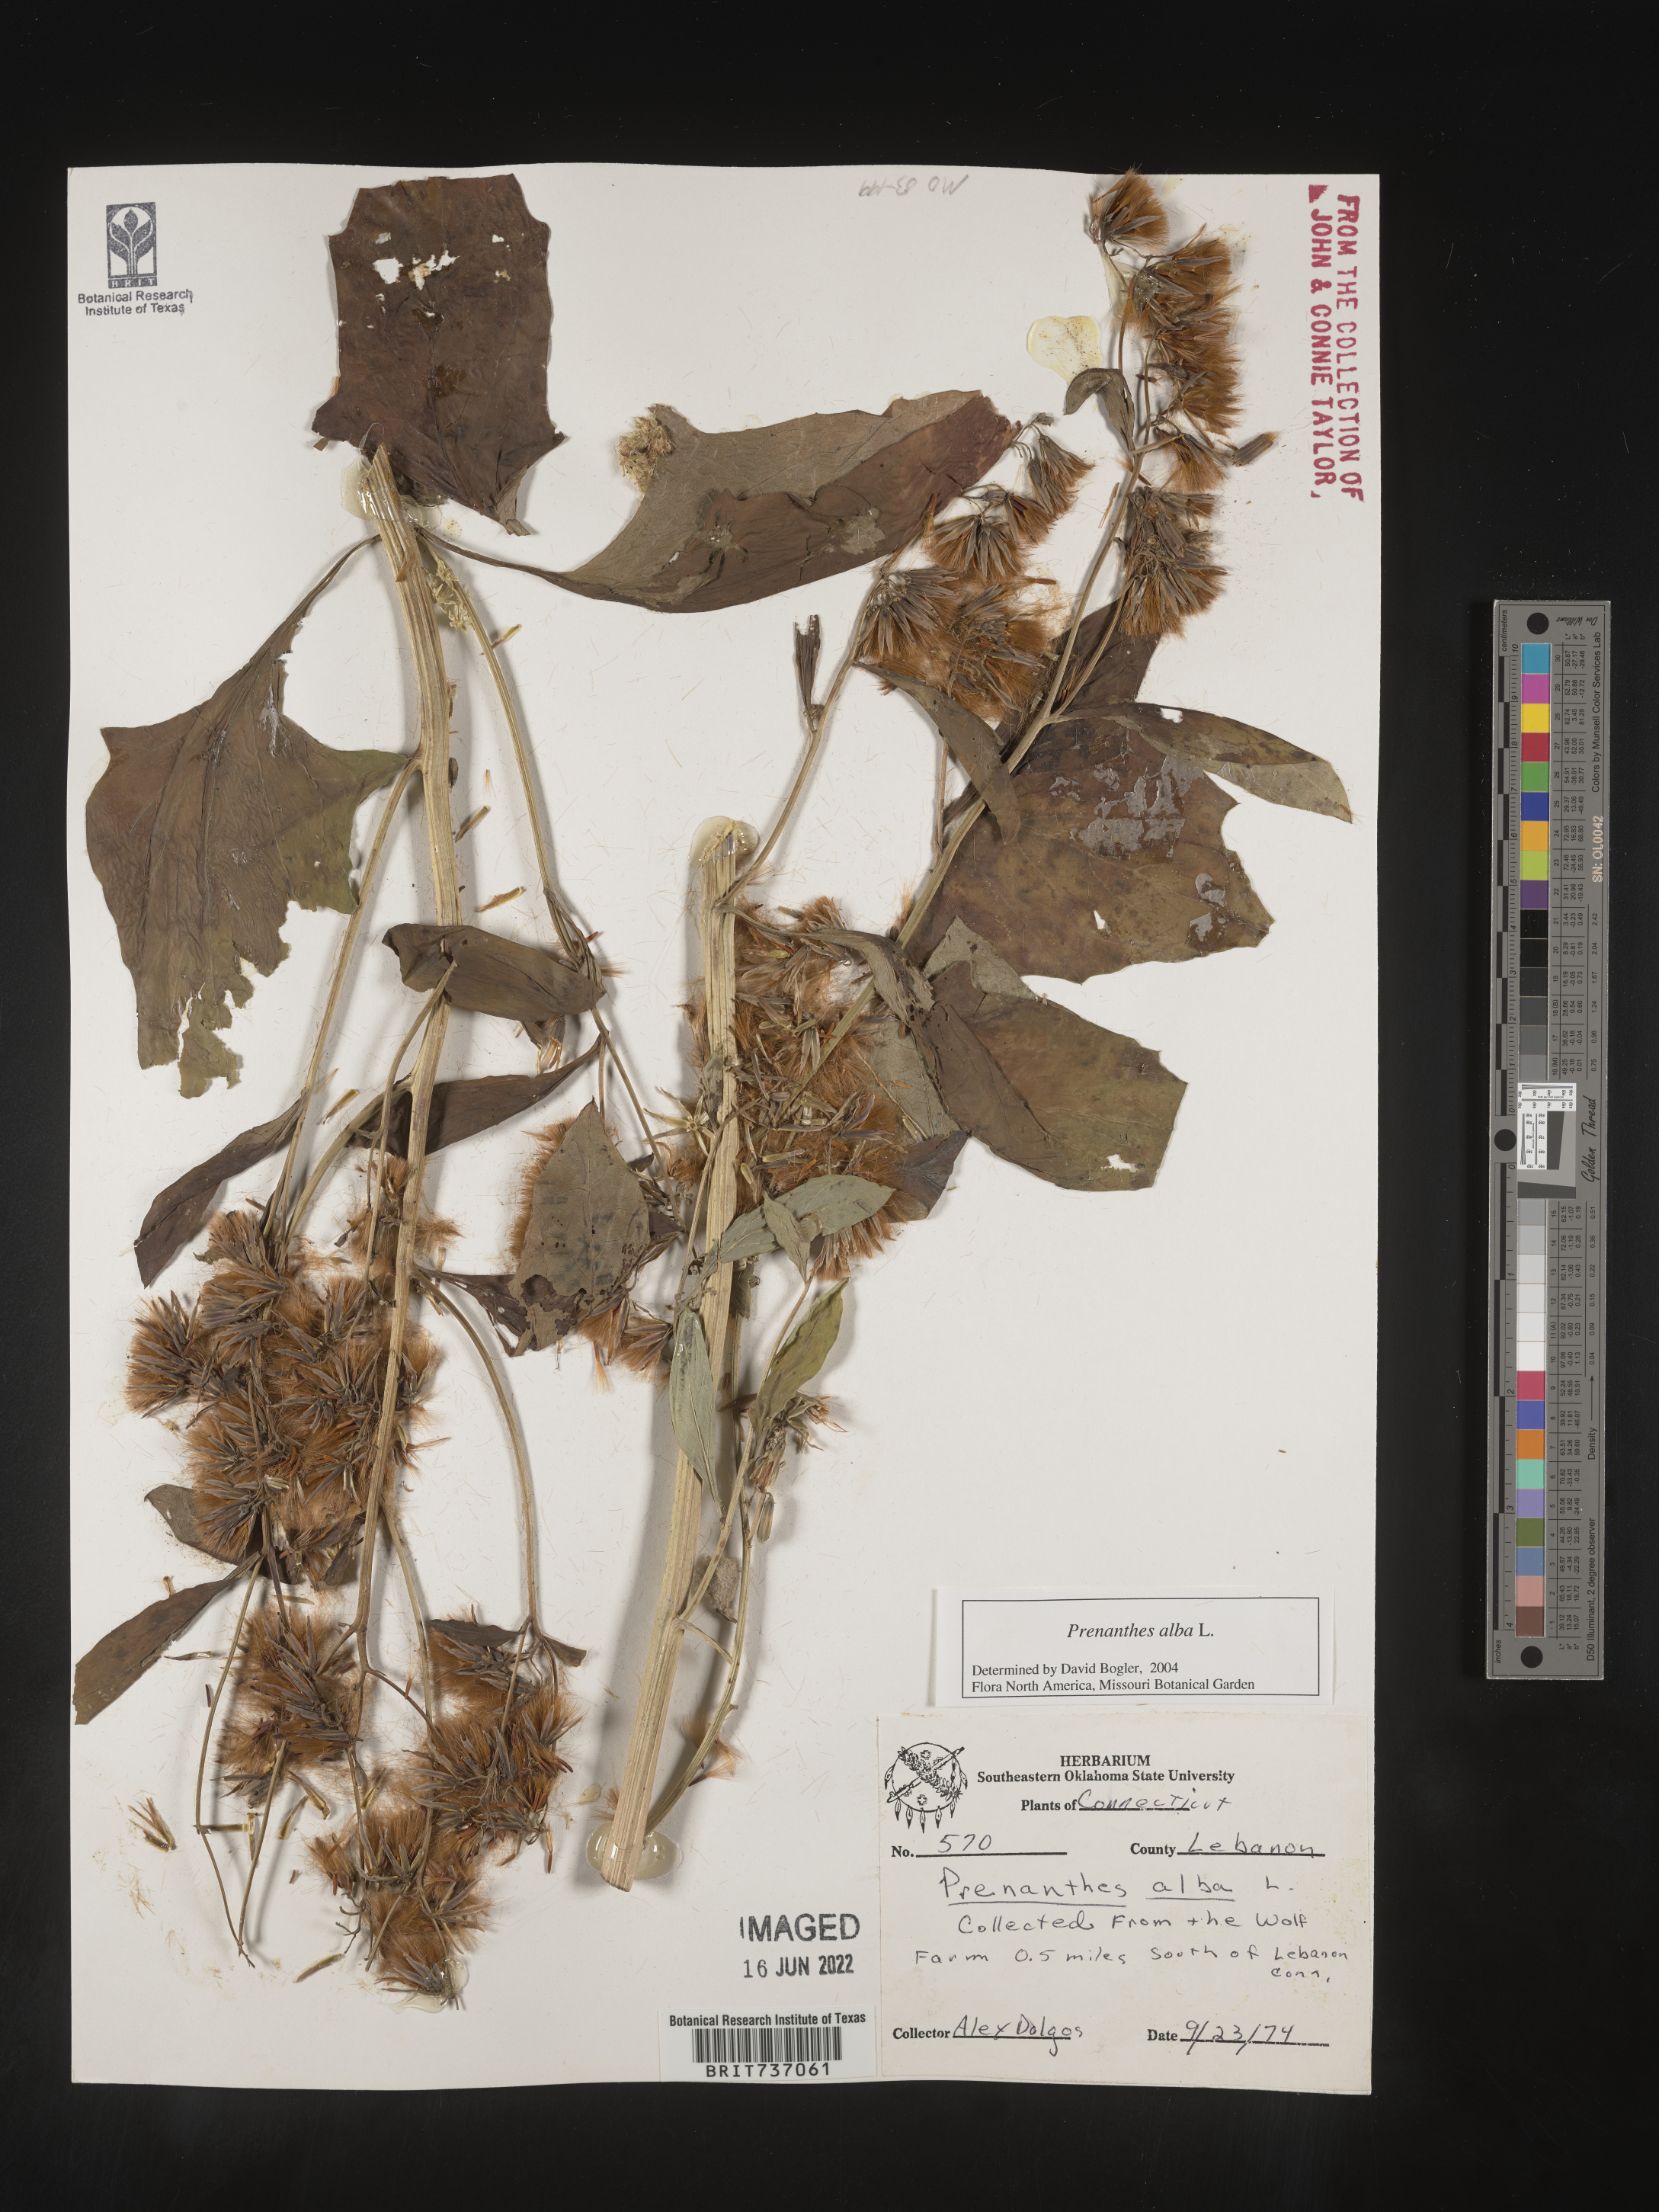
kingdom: Plantae
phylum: Tracheophyta
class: Magnoliopsida
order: Asterales
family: Asteraceae
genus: Nabalus
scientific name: Nabalus albus
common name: White rattlesnakeroot
